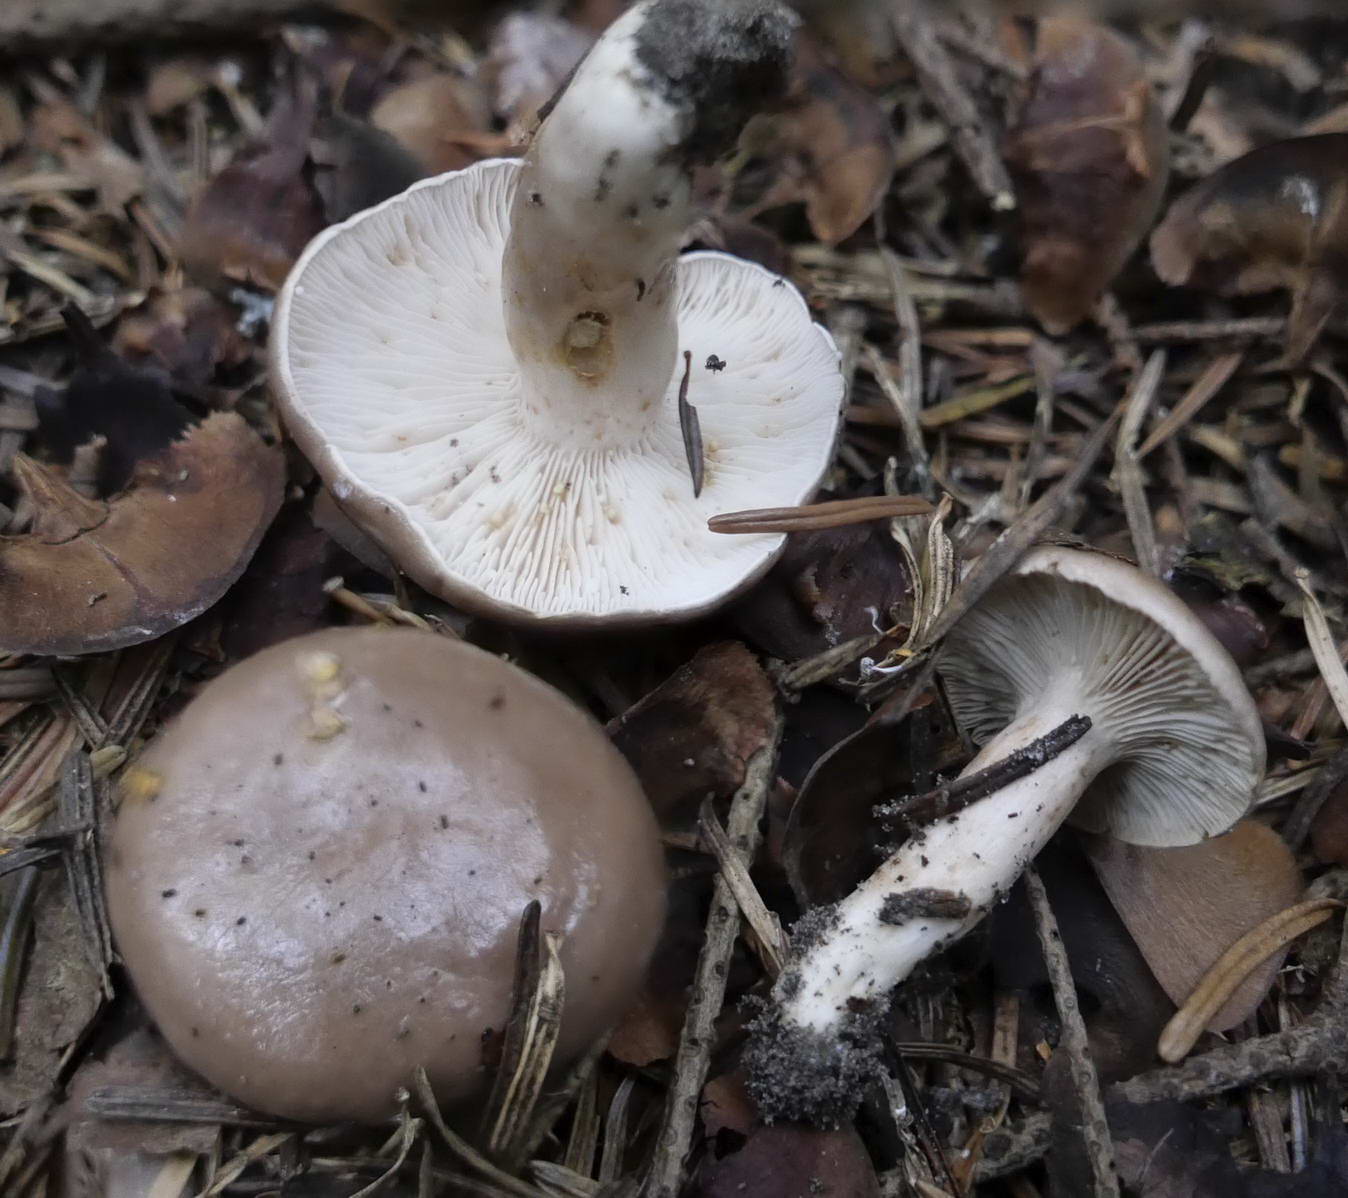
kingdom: Fungi
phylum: Basidiomycota
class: Agaricomycetes
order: Russulales
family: Russulaceae
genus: Lactarius
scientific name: Lactarius albocarneus
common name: ædelgran-mælkehat
